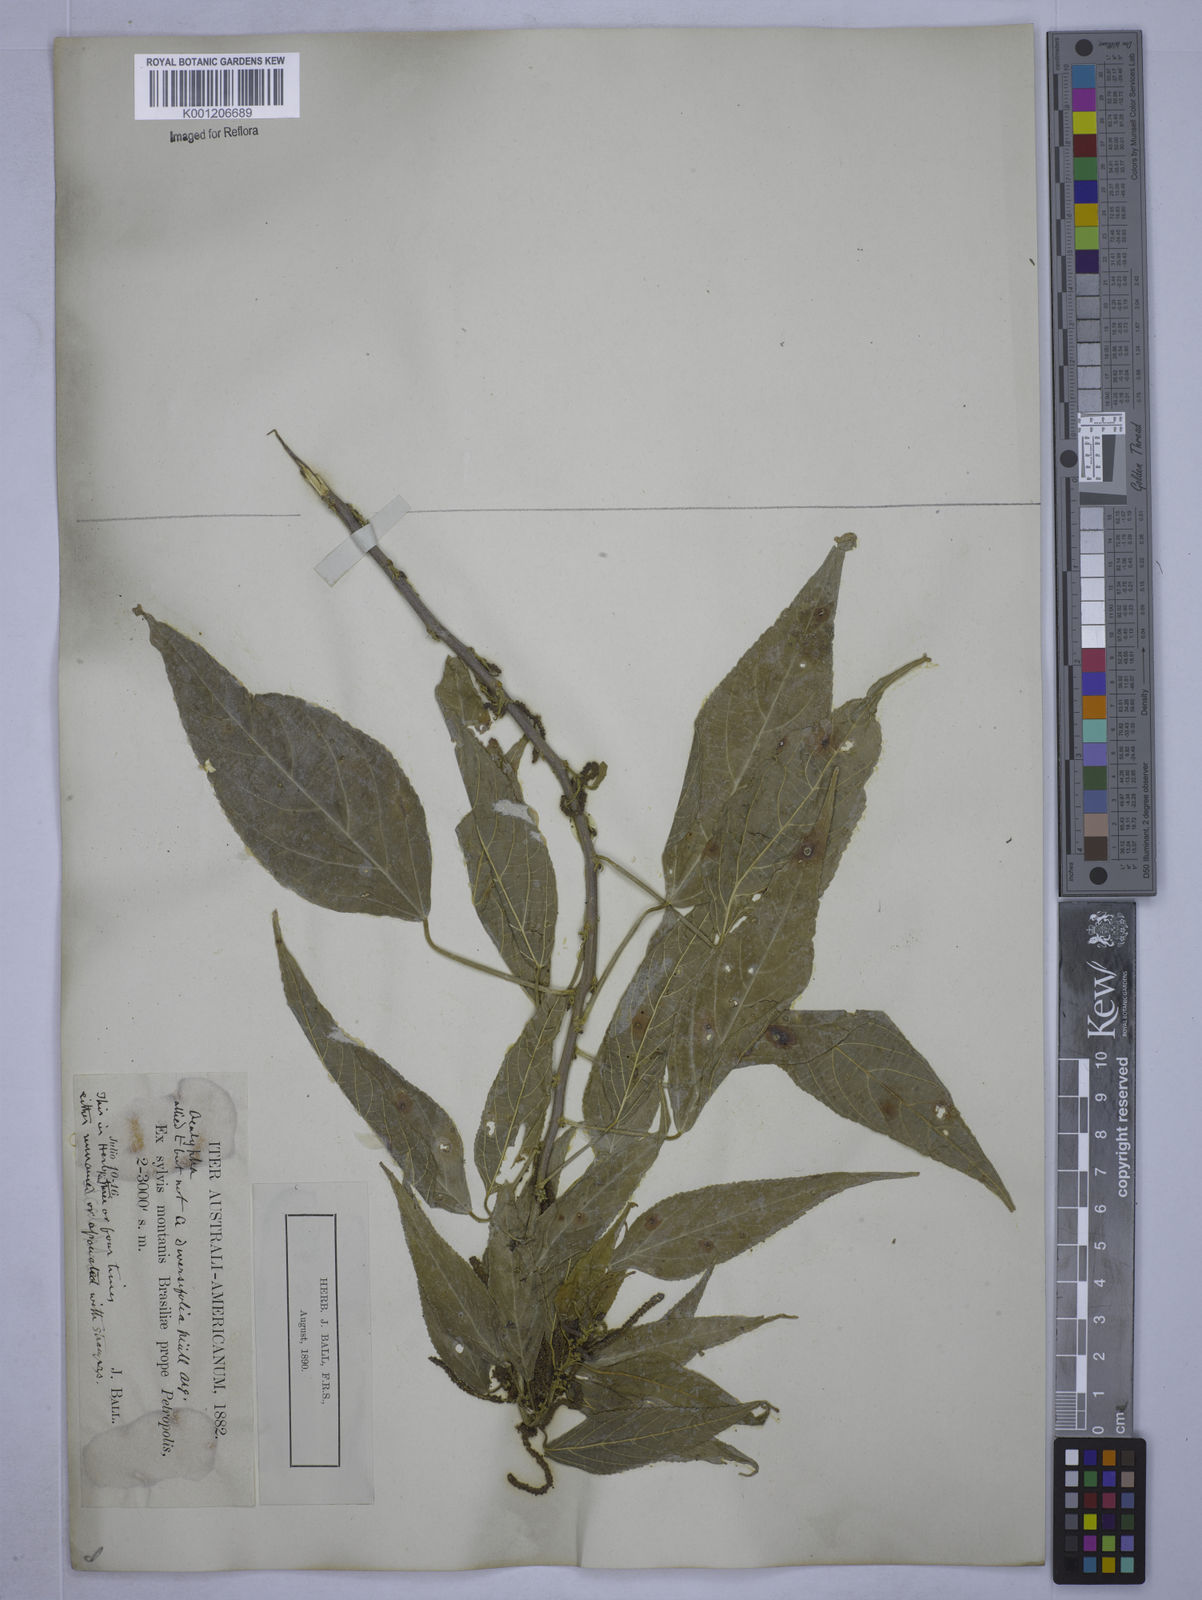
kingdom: Plantae
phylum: Tracheophyta
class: Magnoliopsida
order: Malpighiales
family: Euphorbiaceae
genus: Acalypha
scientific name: Acalypha diversifolia
